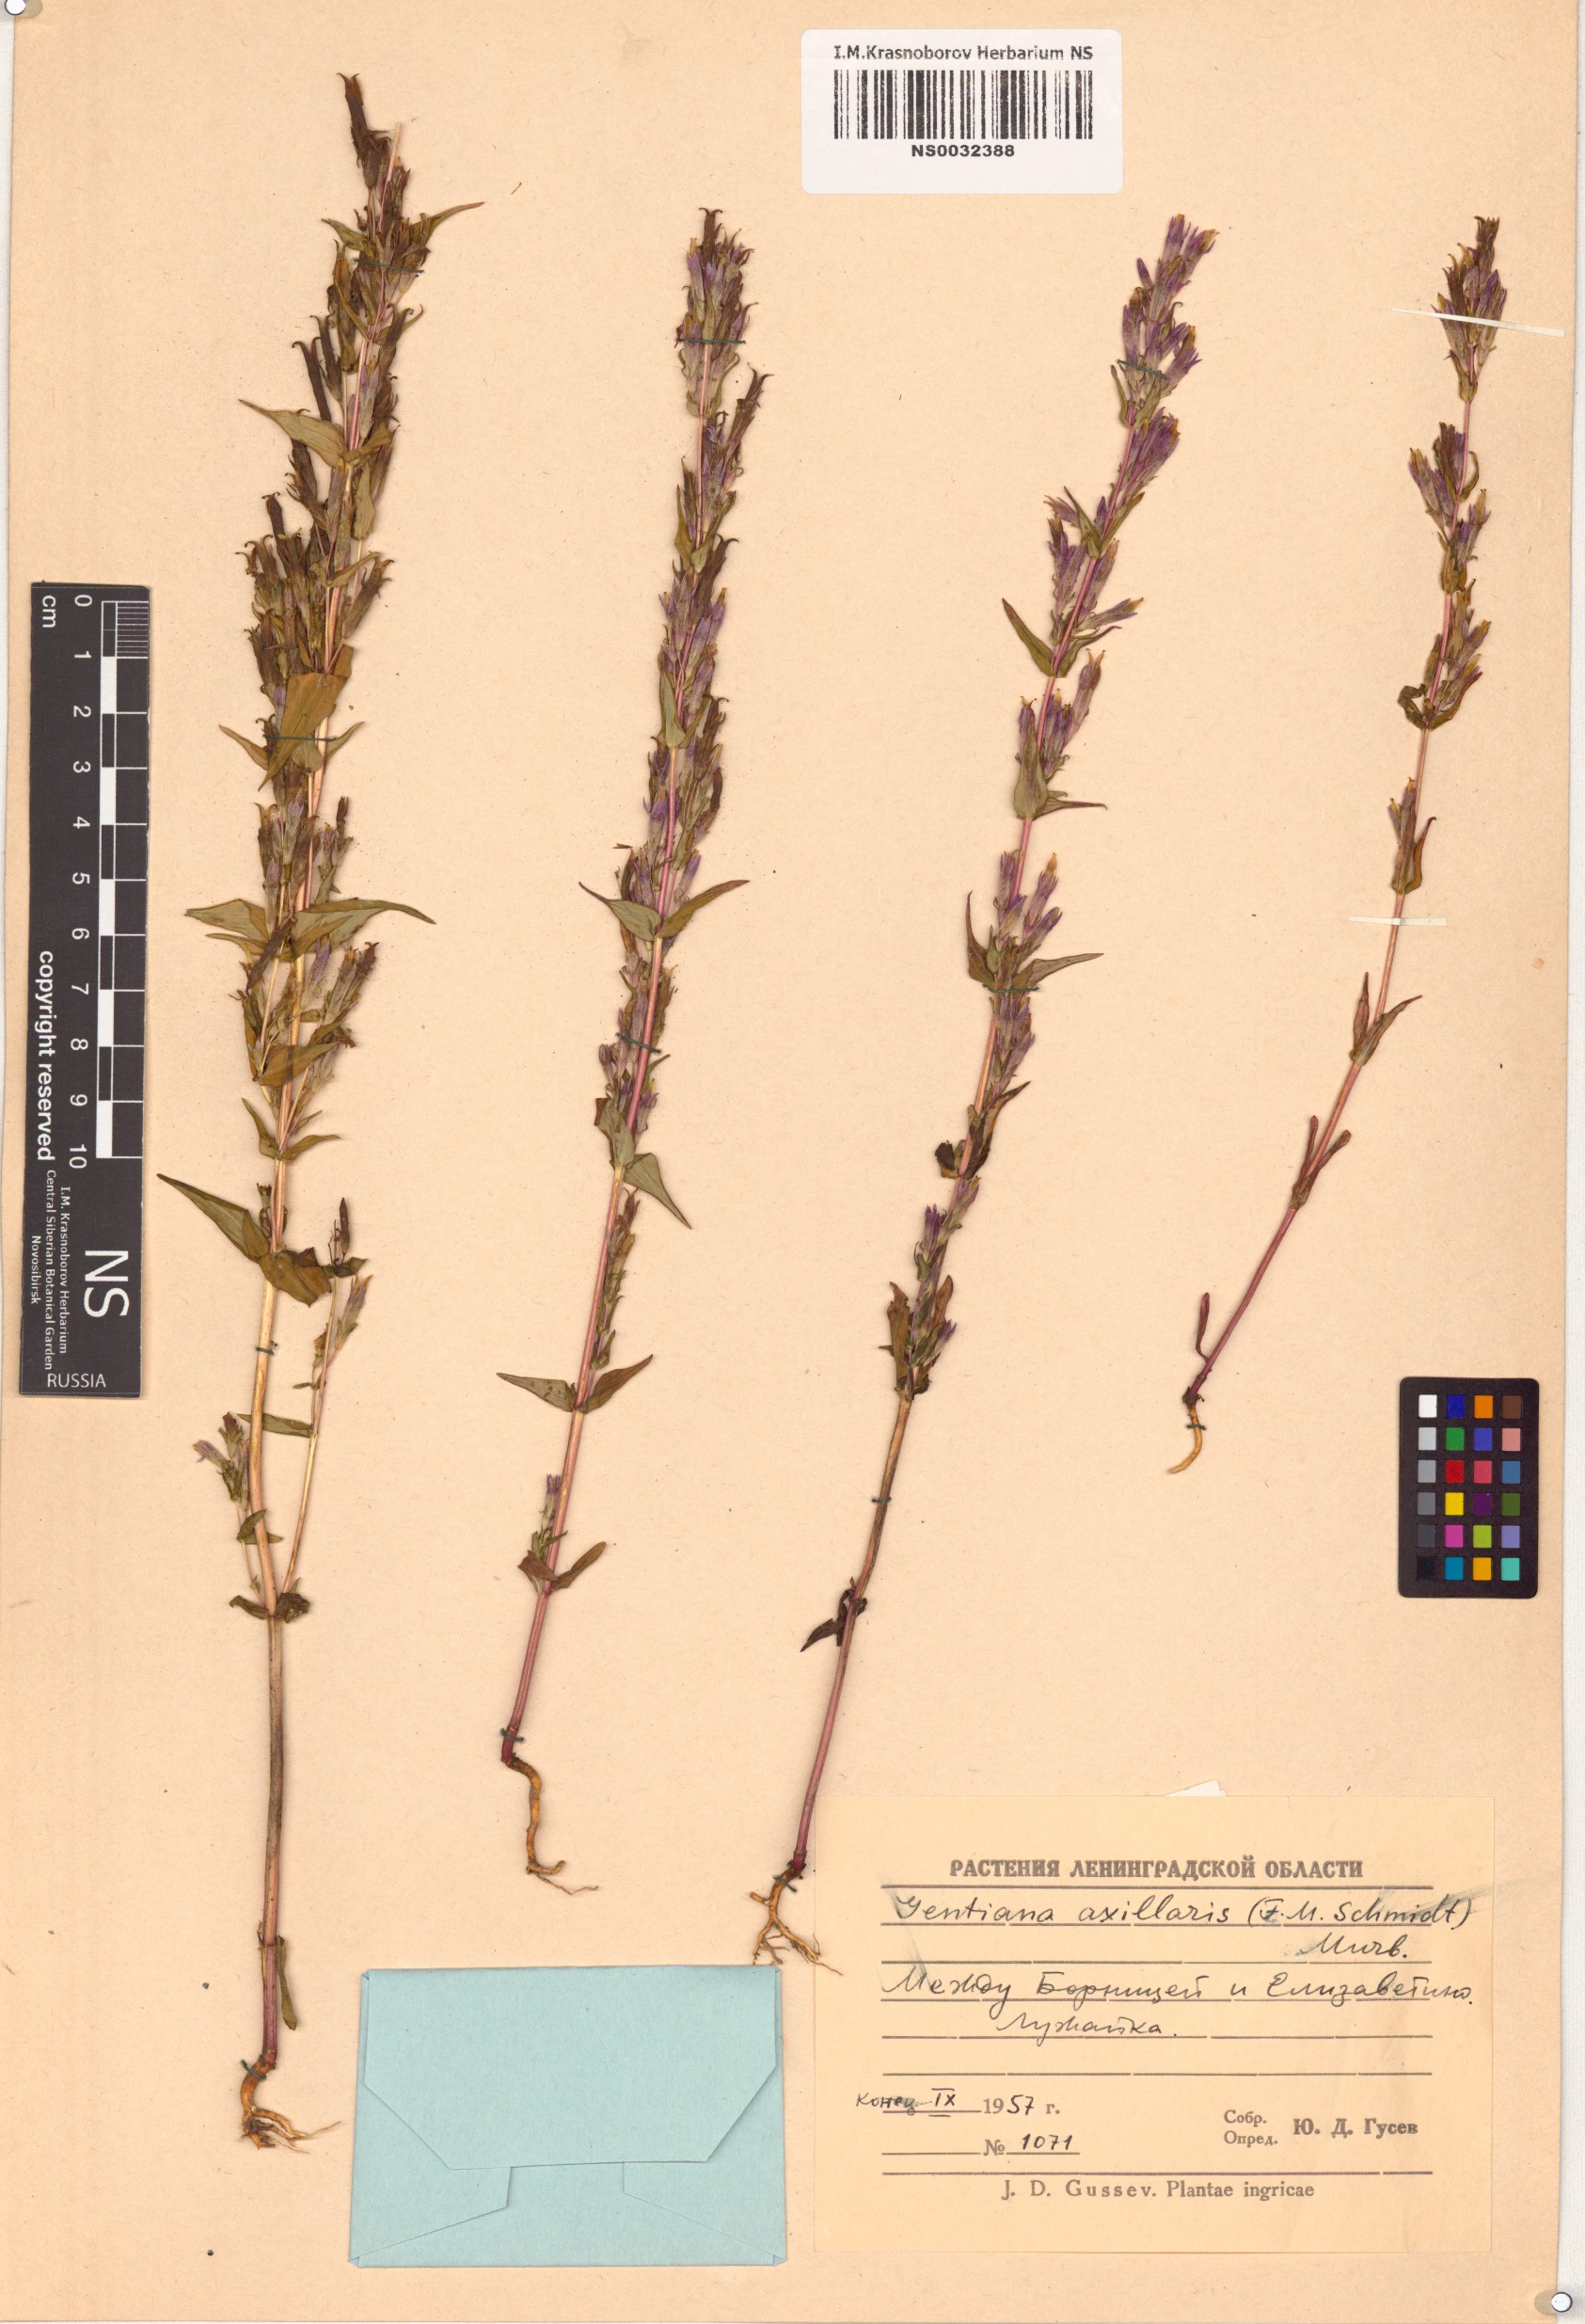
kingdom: Plantae
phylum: Tracheophyta
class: Magnoliopsida
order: Gentianales
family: Gentianaceae
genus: Gentianella
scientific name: Gentianella amarella
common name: Autumn gentian
